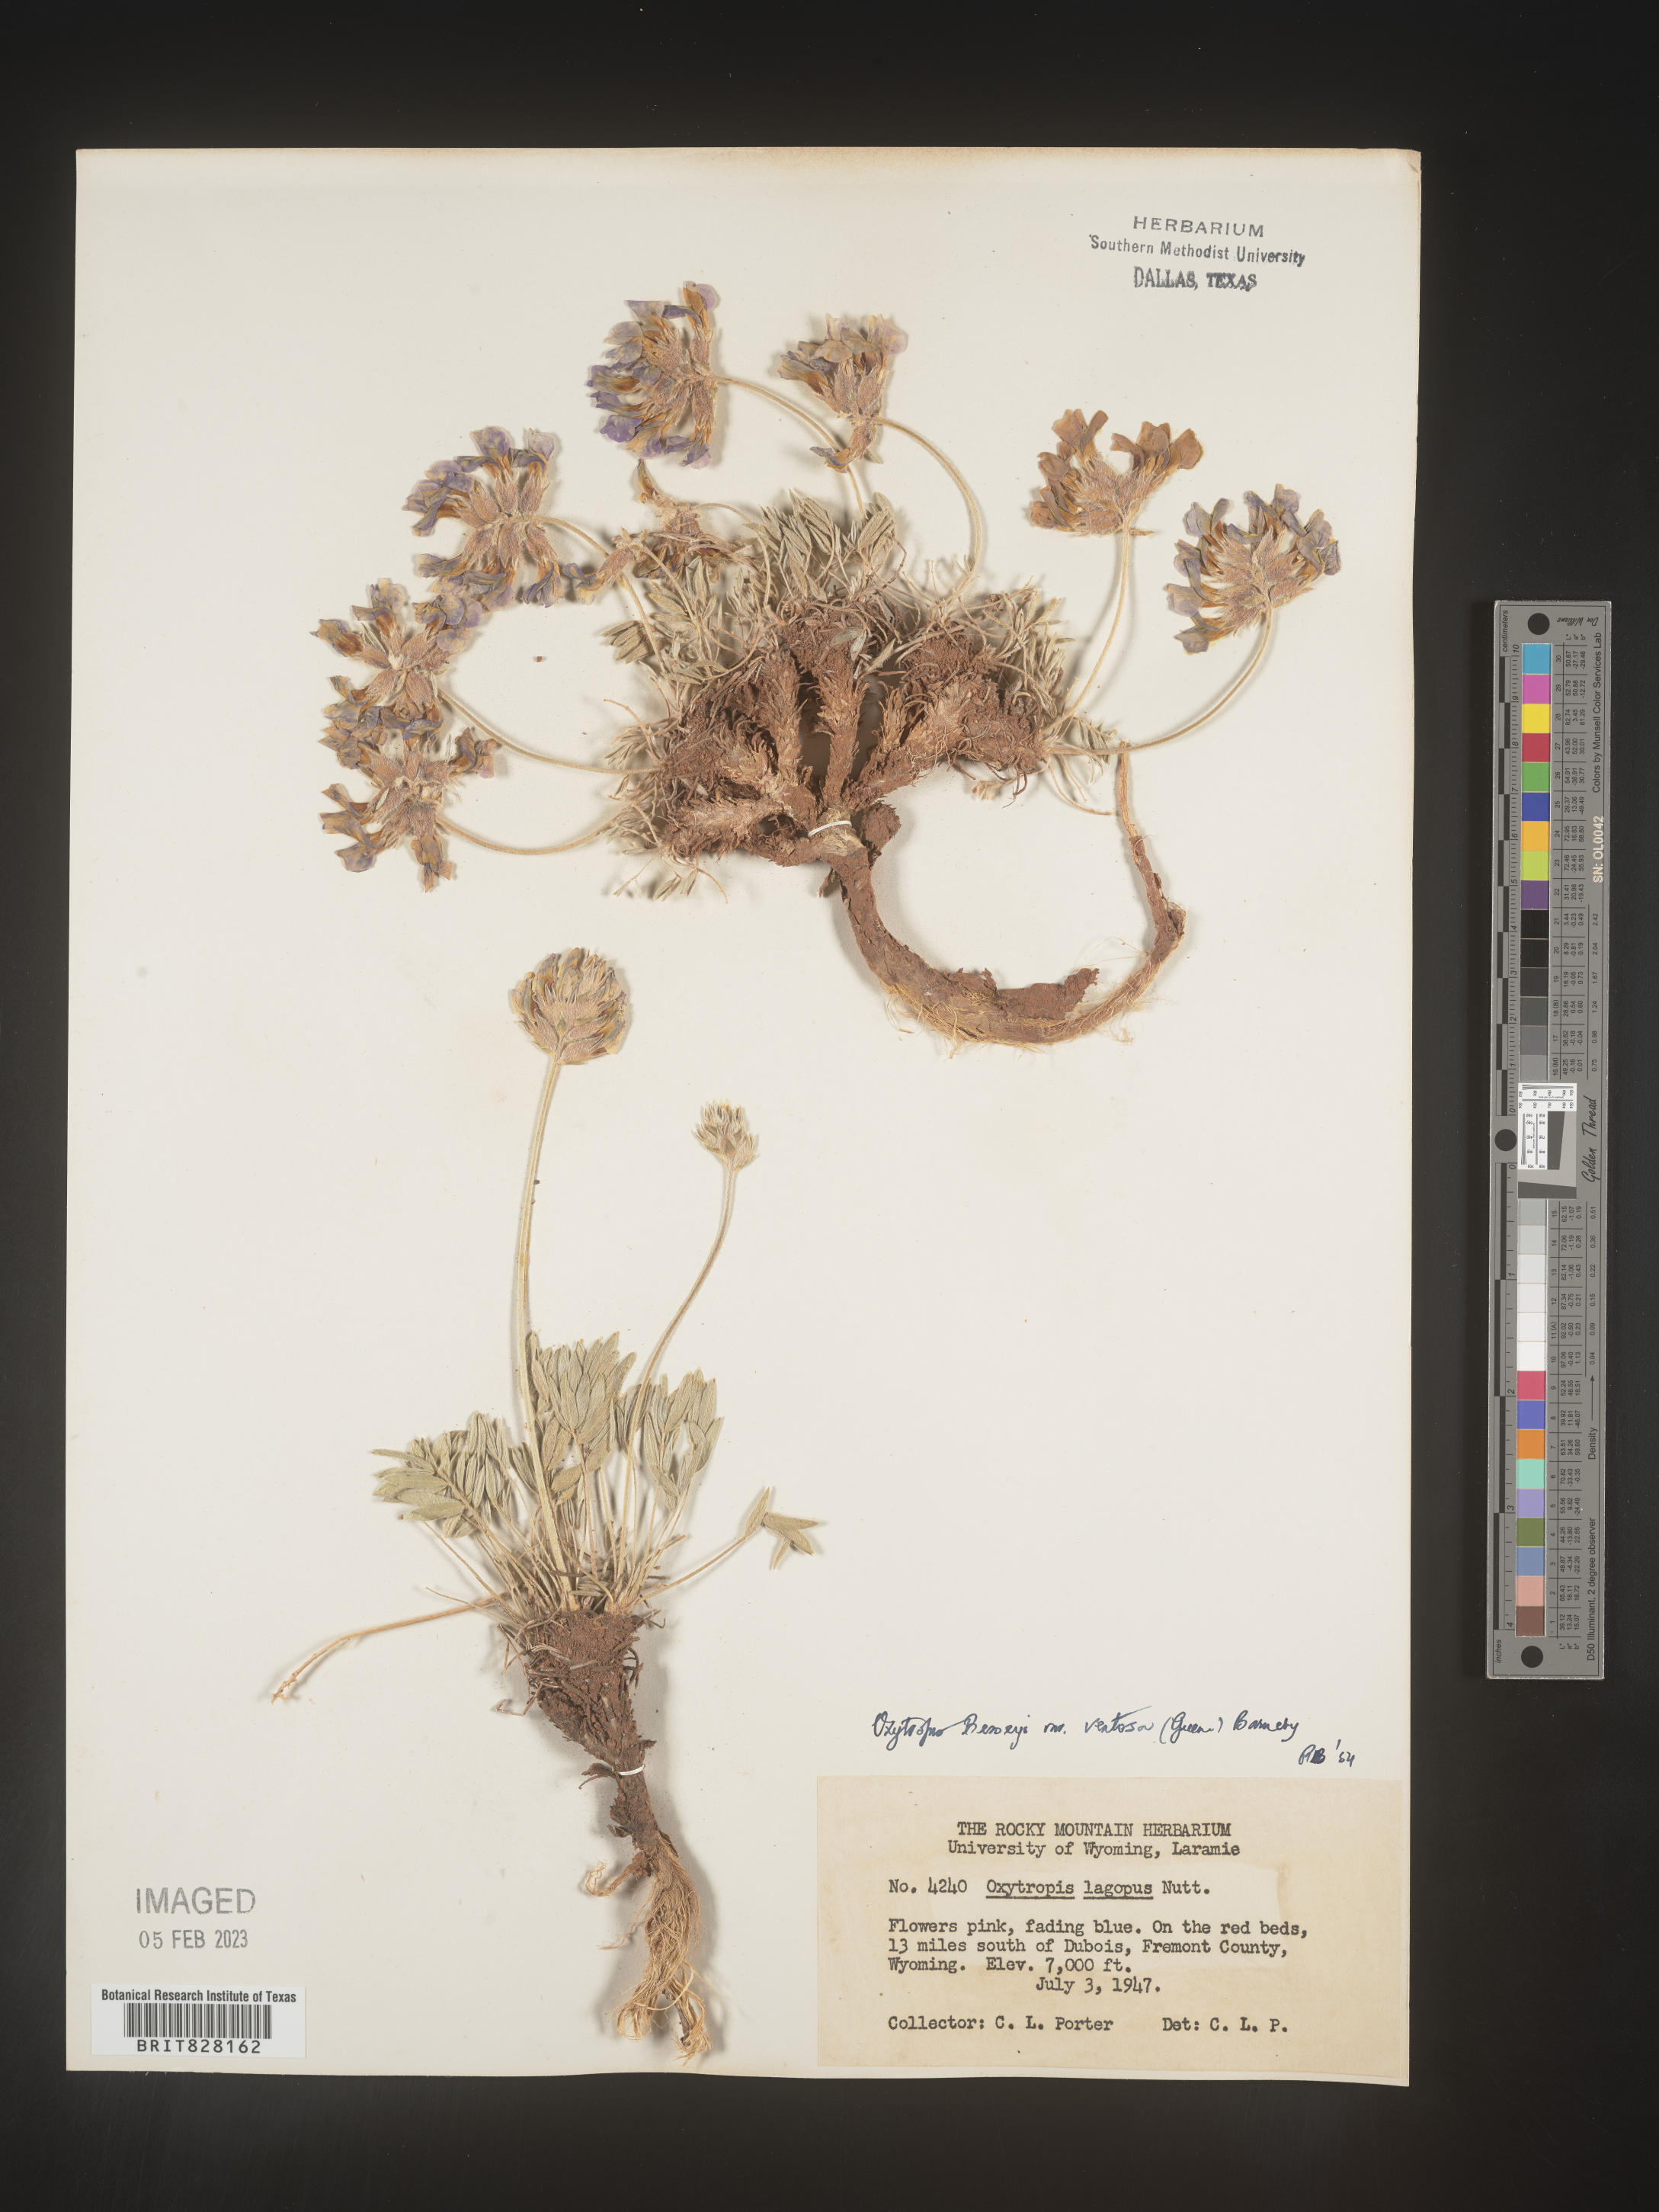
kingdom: Plantae
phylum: Tracheophyta
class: Magnoliopsida
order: Fabales
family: Fabaceae
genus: Oxytropis
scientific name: Oxytropis
